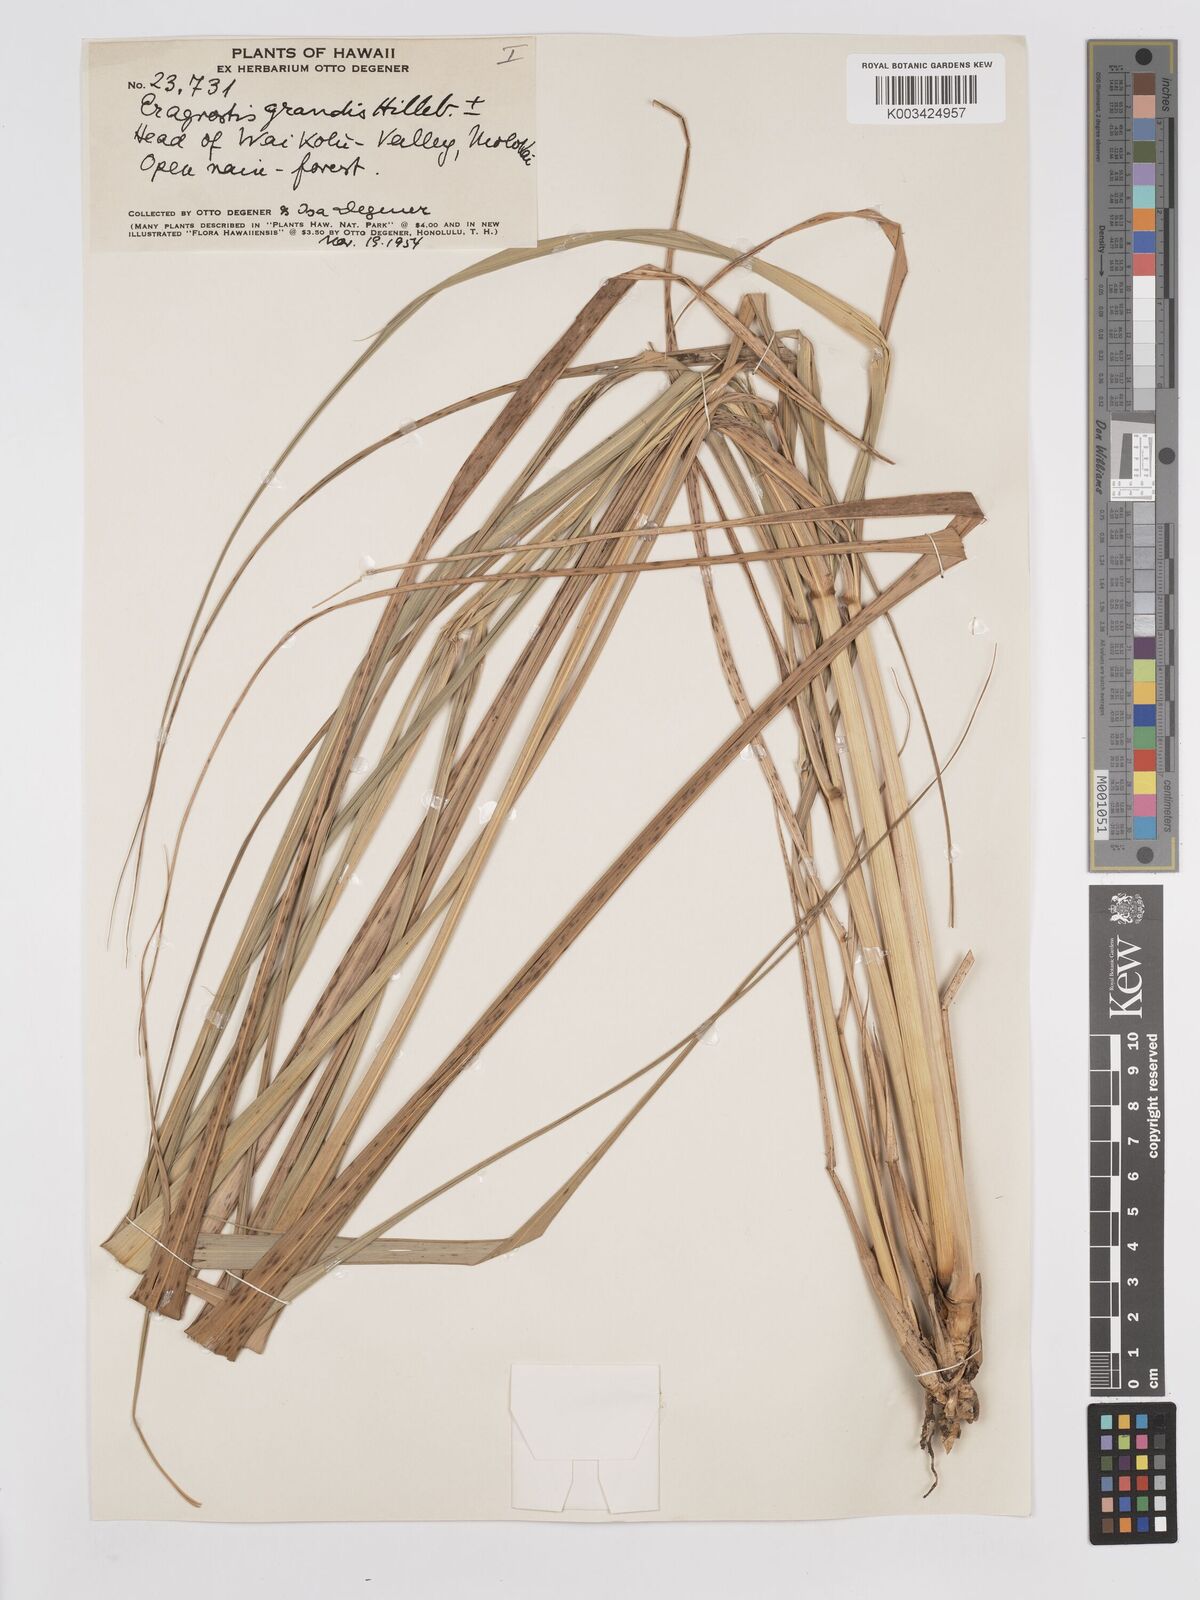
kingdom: Plantae
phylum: Tracheophyta
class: Liliopsida
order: Poales
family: Poaceae
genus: Eragrostis
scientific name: Eragrostis grandis
